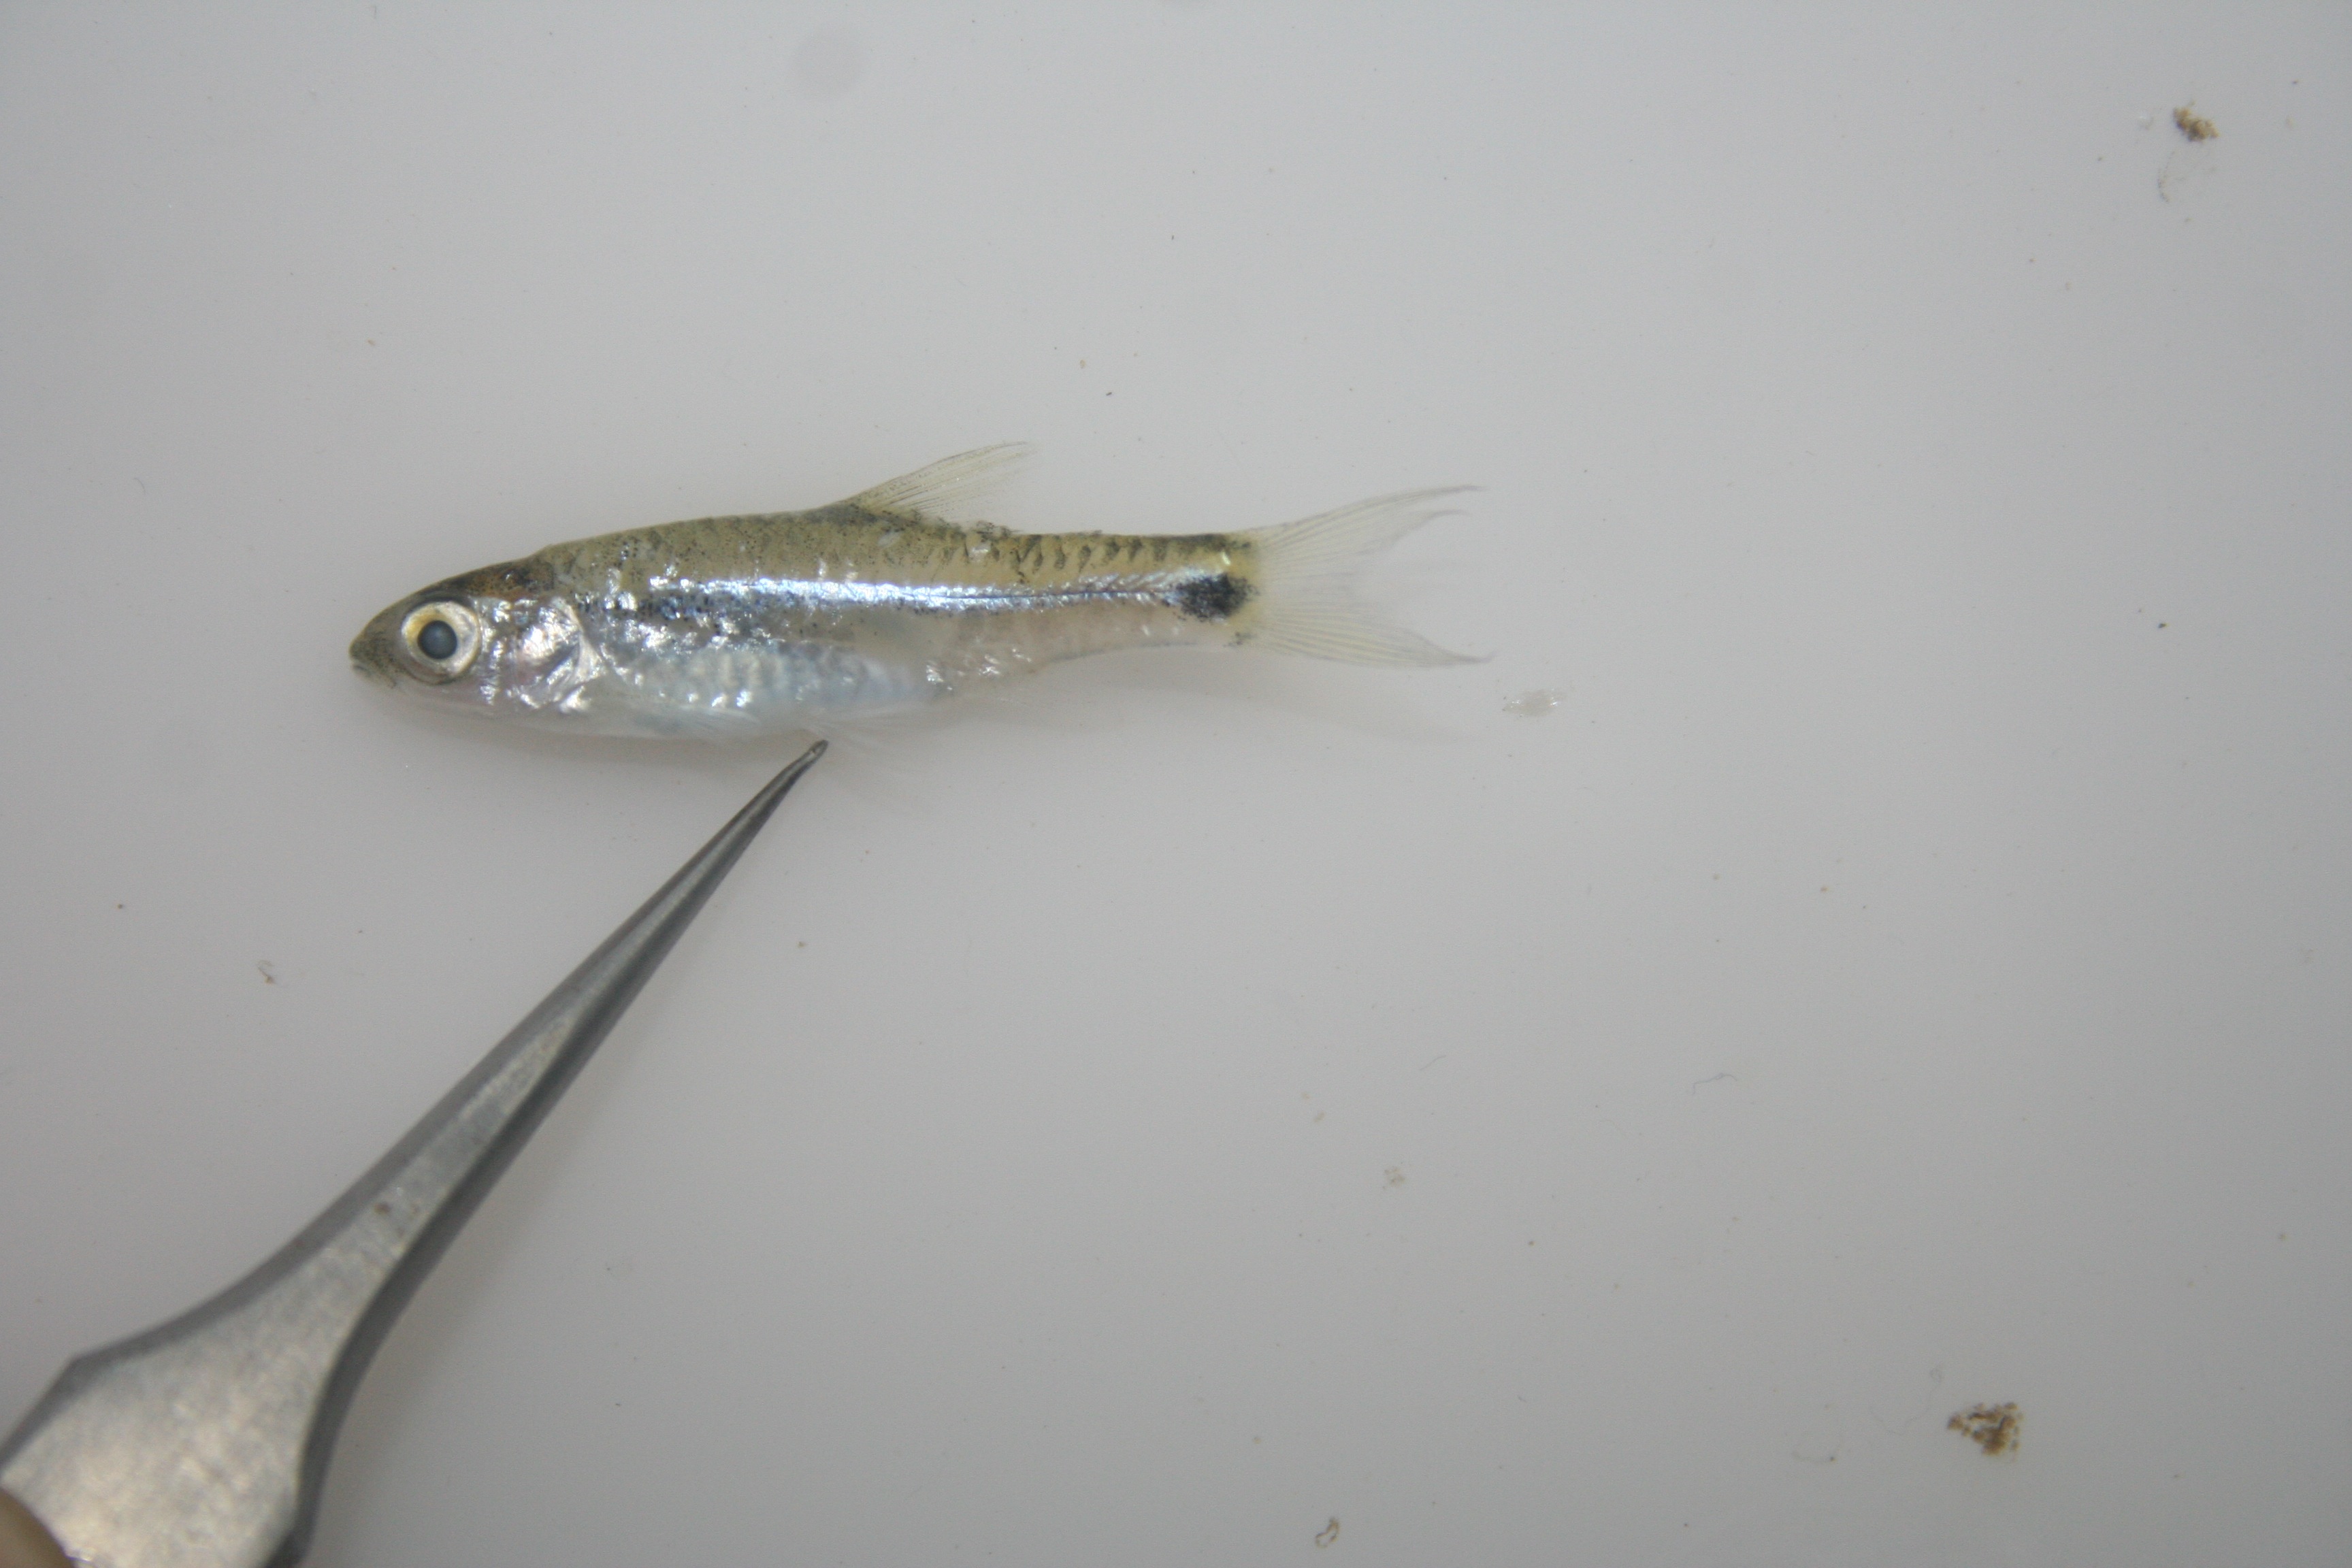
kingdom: Animalia
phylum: Chordata
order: Cypriniformes
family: Cyprinidae
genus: Barbus
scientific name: Barbus
